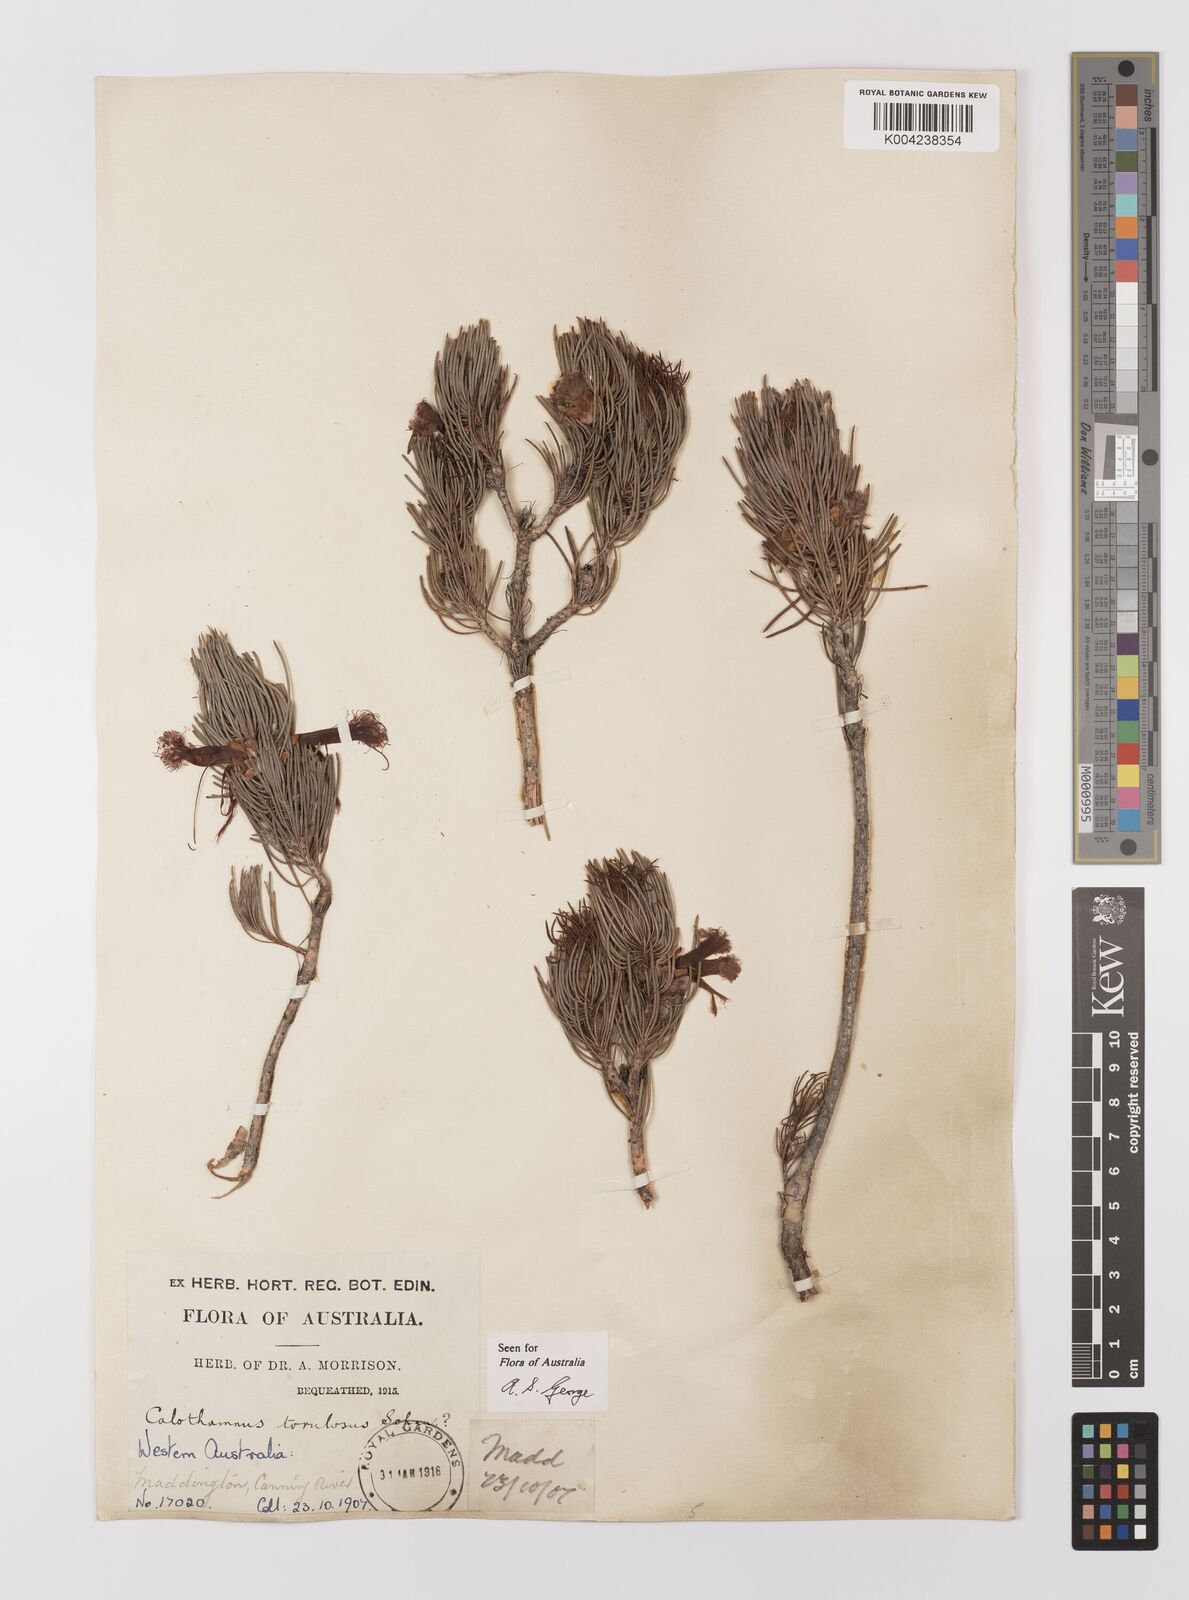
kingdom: Plantae
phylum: Tracheophyta
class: Magnoliopsida
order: Myrtales
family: Myrtaceae
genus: Melaleuca
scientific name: Melaleuca torulosa
